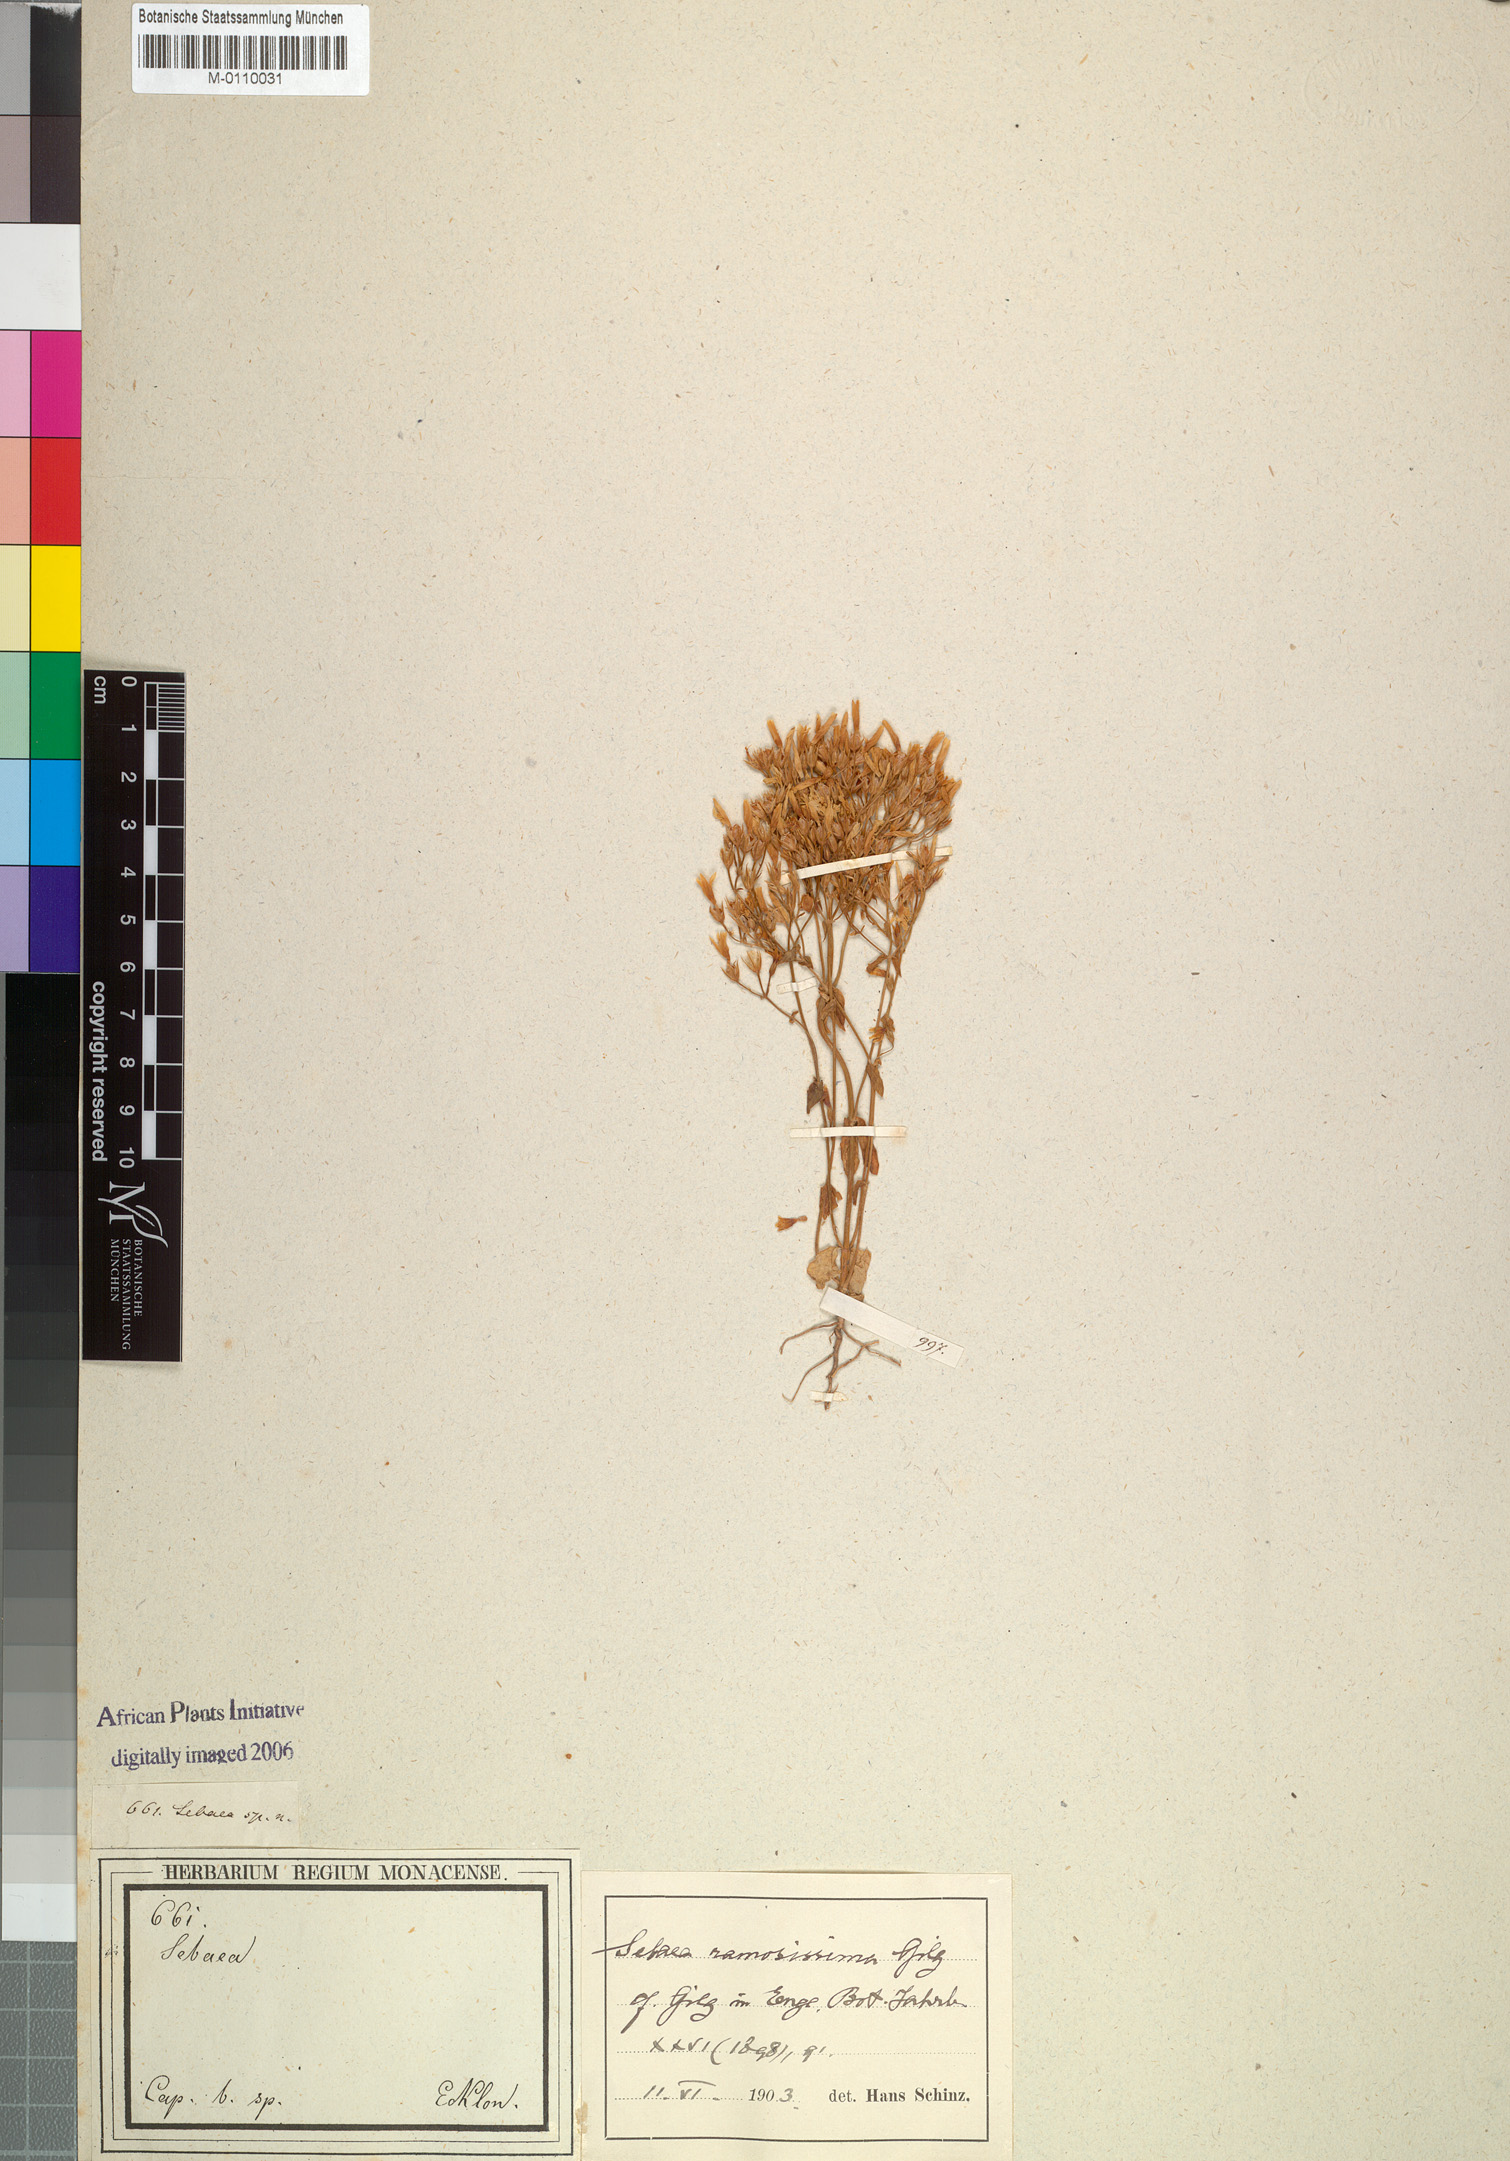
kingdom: Plantae
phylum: Tracheophyta
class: Magnoliopsida
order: Gentianales
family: Gentianaceae
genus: Sebaea
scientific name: Sebaea ramosissima
